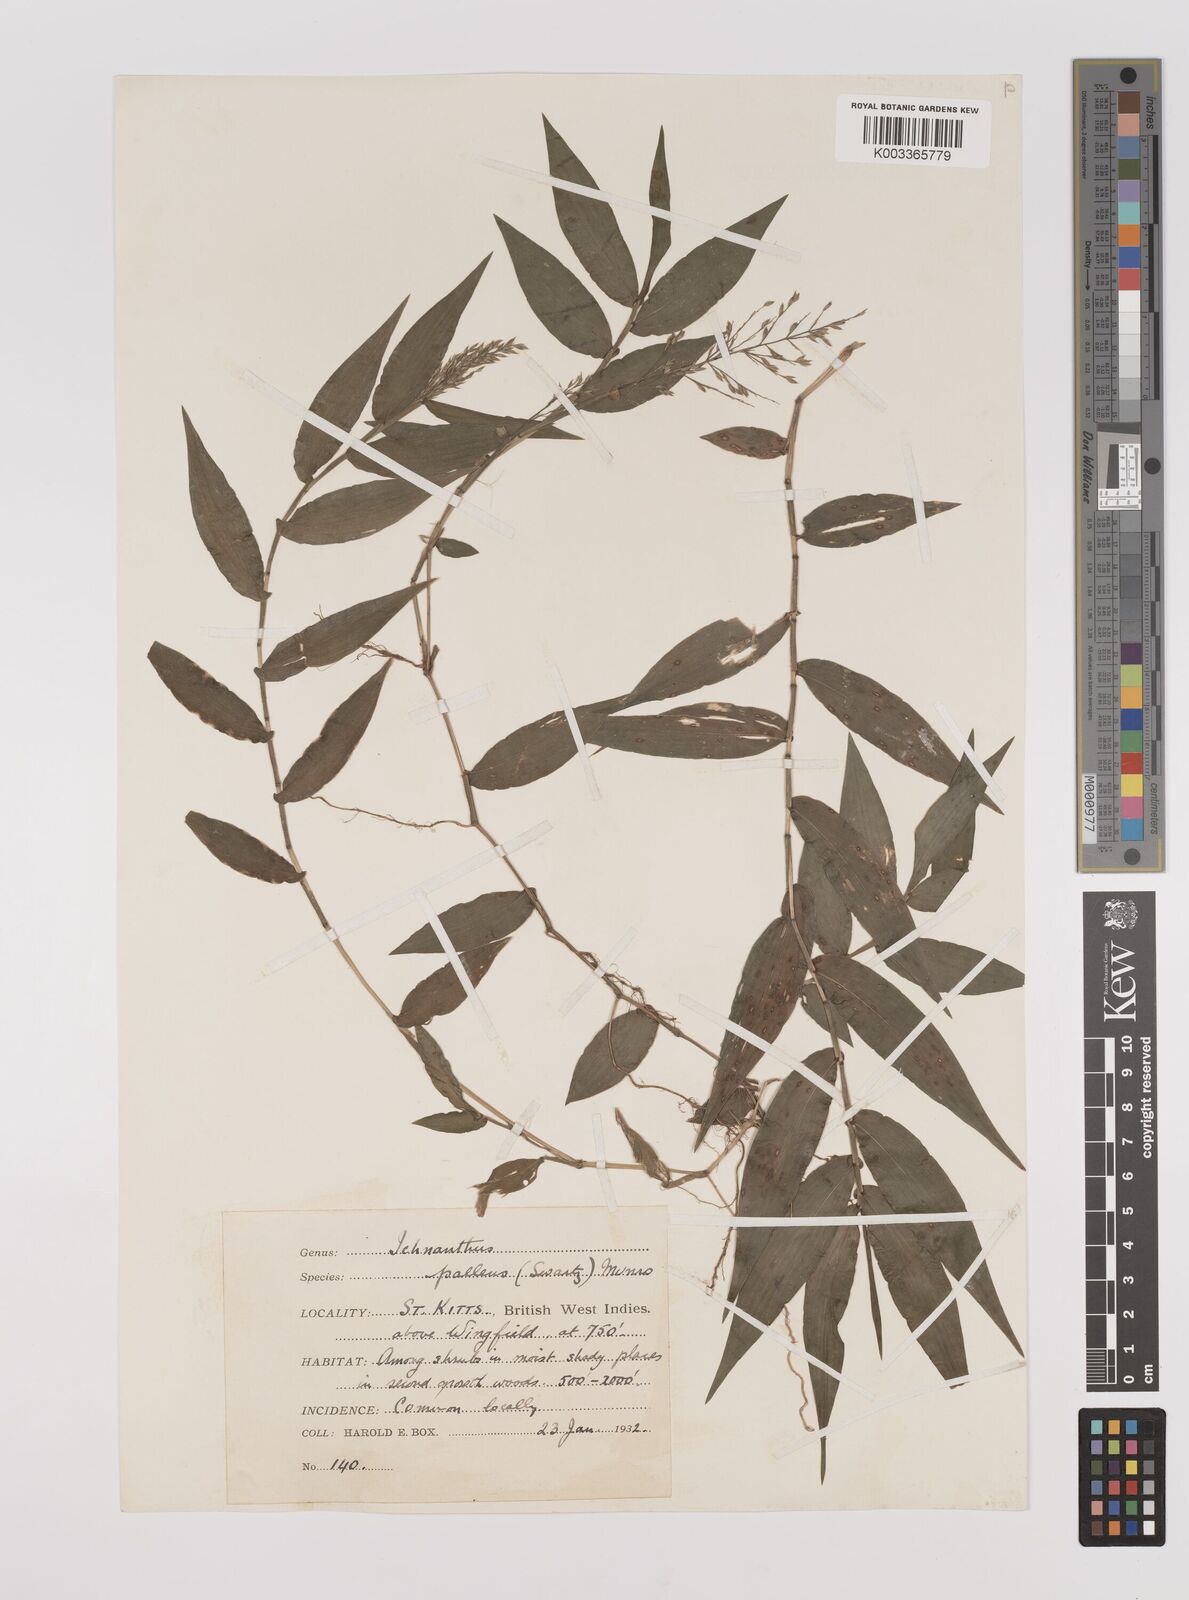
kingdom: Plantae
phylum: Tracheophyta
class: Liliopsida
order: Poales
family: Poaceae
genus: Ichnanthus
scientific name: Ichnanthus pallens
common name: Water grass
